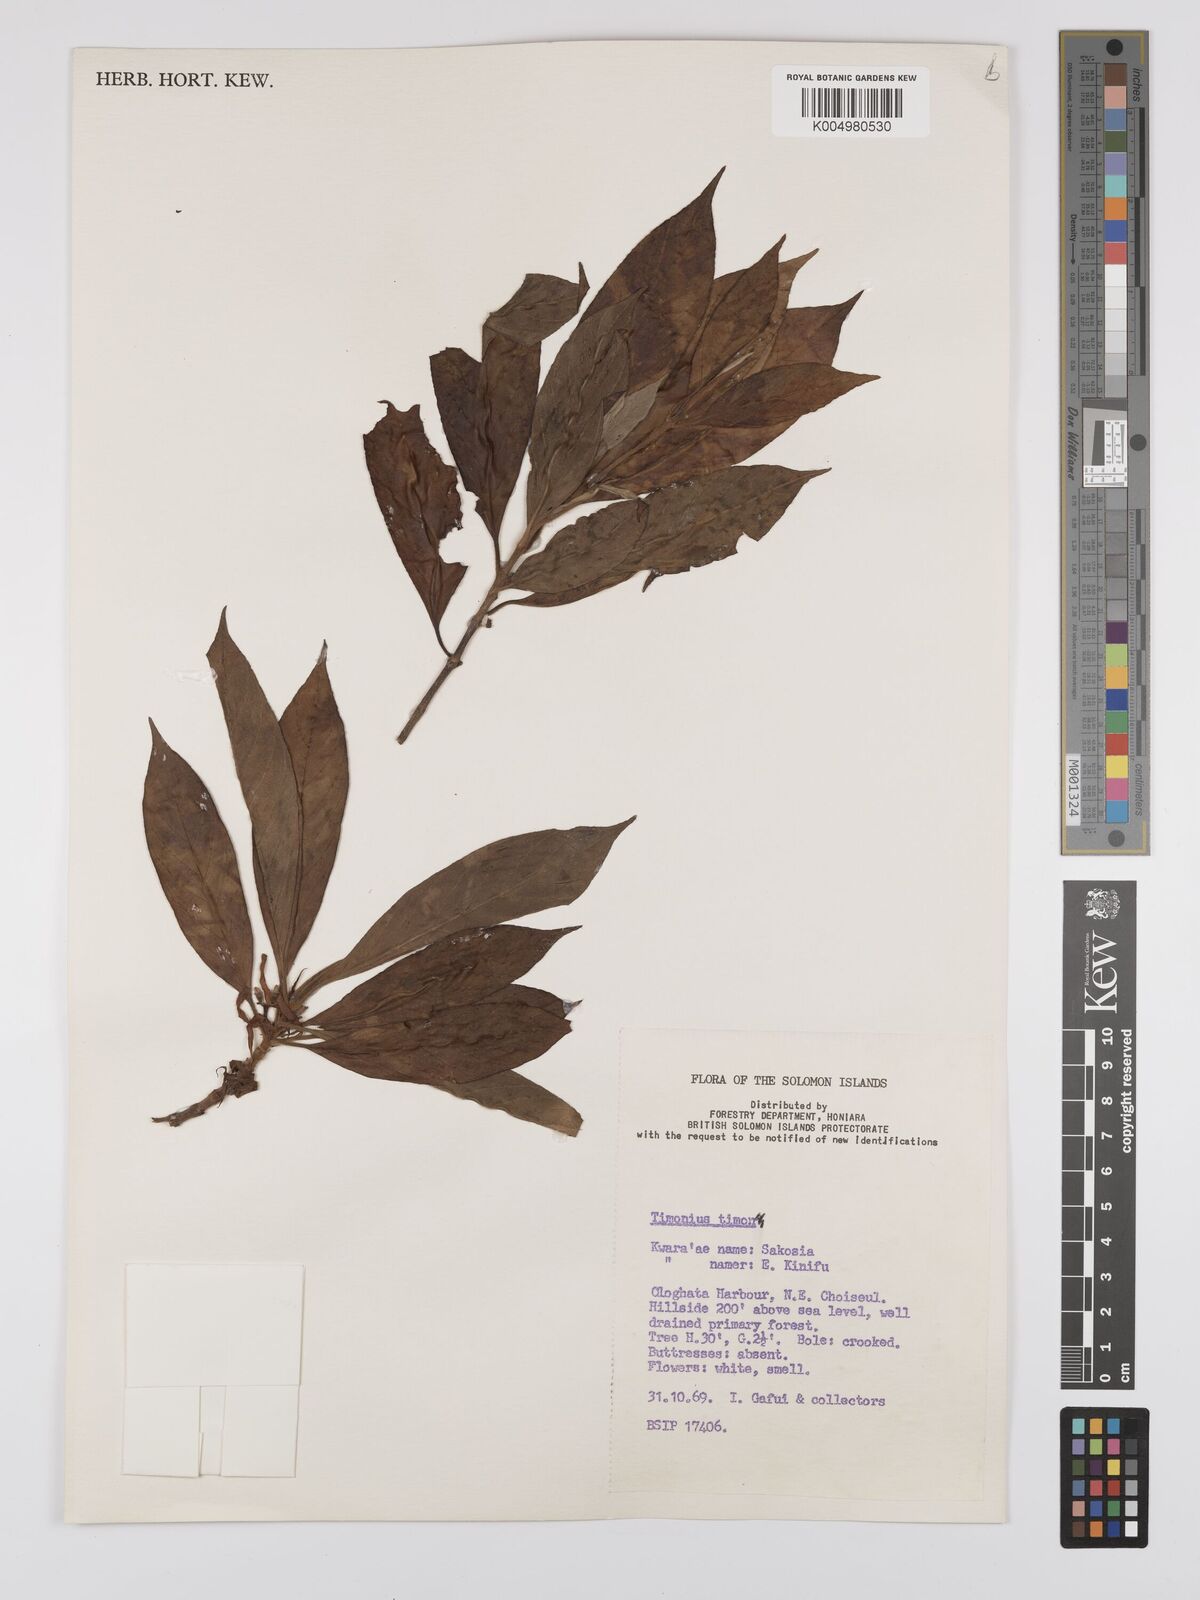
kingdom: Plantae
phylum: Tracheophyta
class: Magnoliopsida
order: Gentianales
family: Rubiaceae
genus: Timonius
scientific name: Timonius timon
